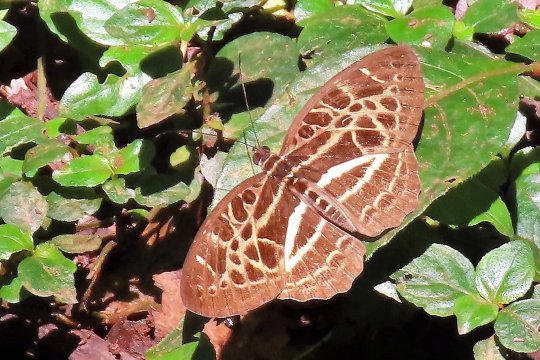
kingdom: Animalia
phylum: Arthropoda
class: Insecta
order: Lepidoptera
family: Nymphalidae
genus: Catuna
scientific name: Catuna crithea
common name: Common Pathfinder
